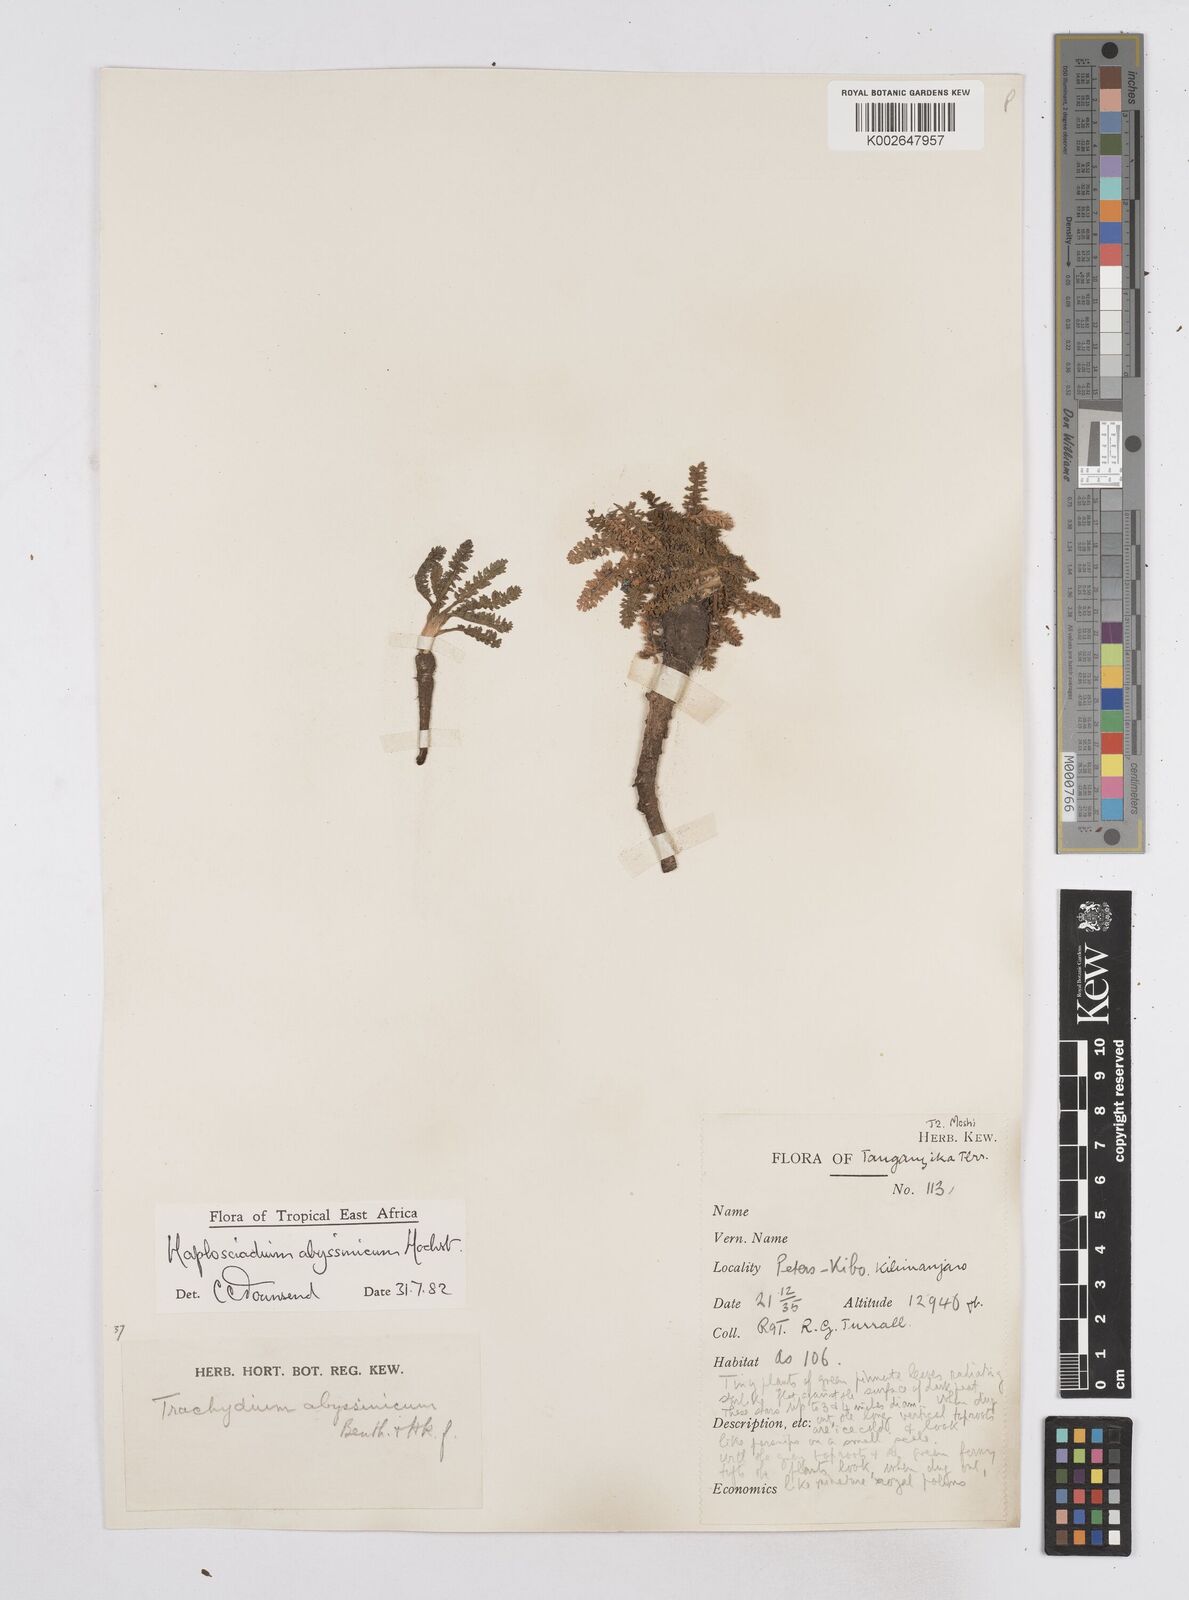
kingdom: Plantae
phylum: Tracheophyta
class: Magnoliopsida
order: Apiales
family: Apiaceae
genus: Haplosciadium
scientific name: Haplosciadium abyssinicum
